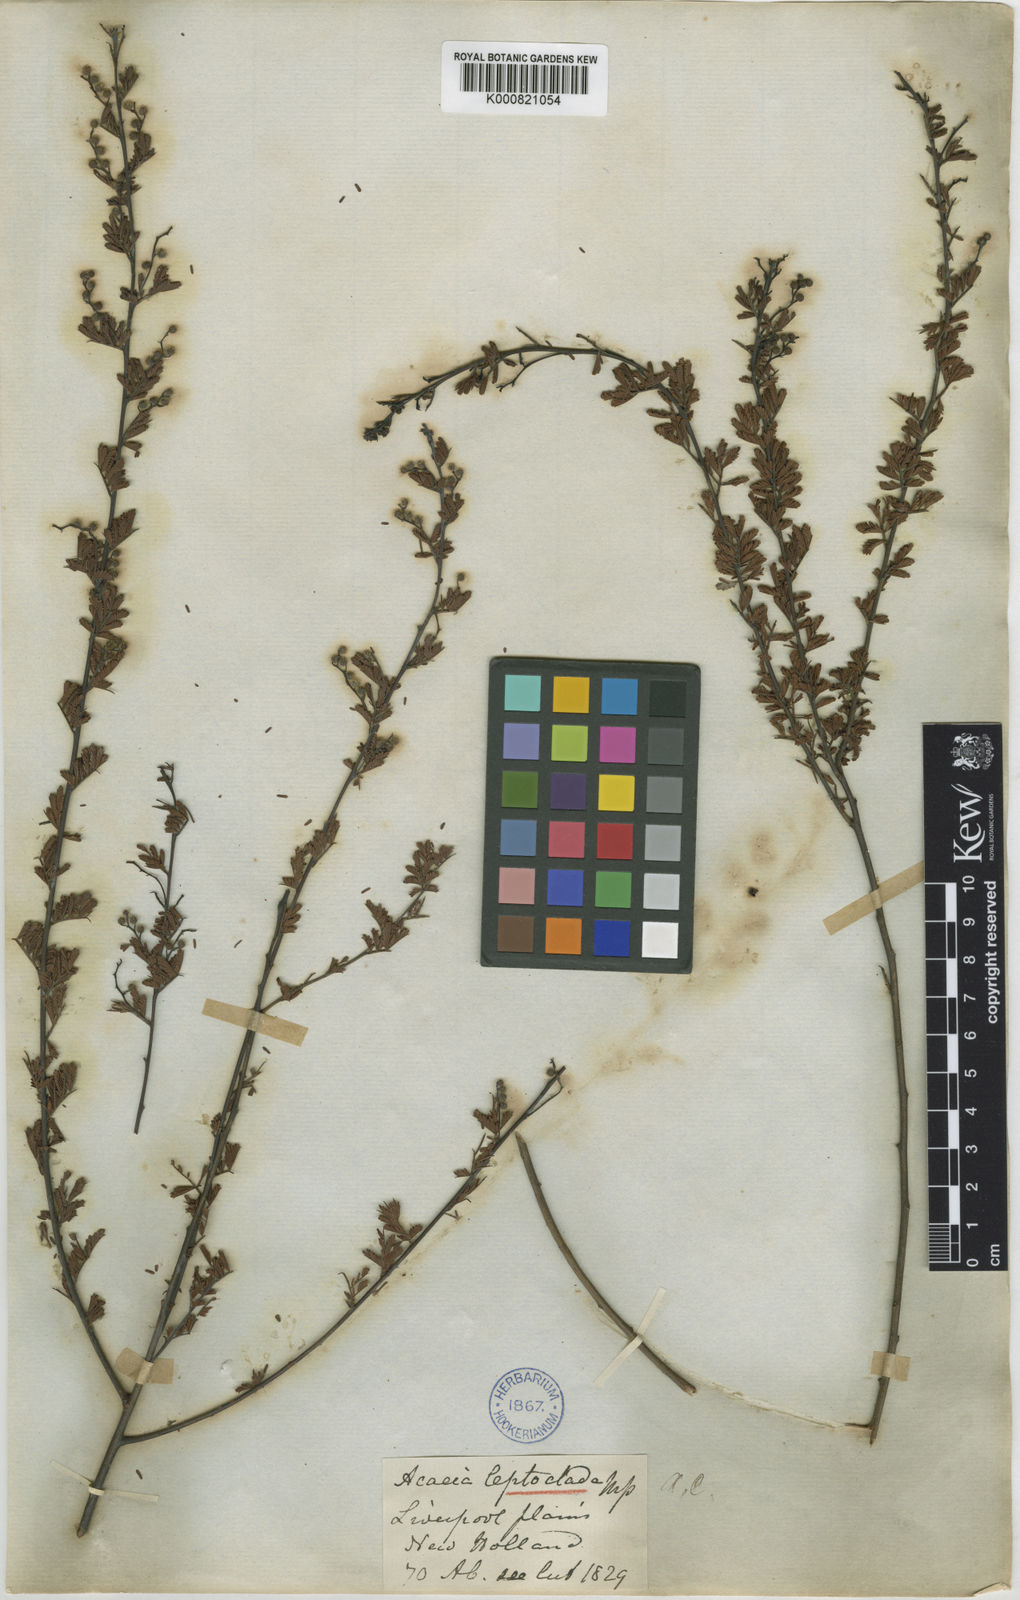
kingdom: Plantae
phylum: Tracheophyta
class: Magnoliopsida
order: Fabales
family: Fabaceae
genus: Acacia
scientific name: Acacia leptoclada
